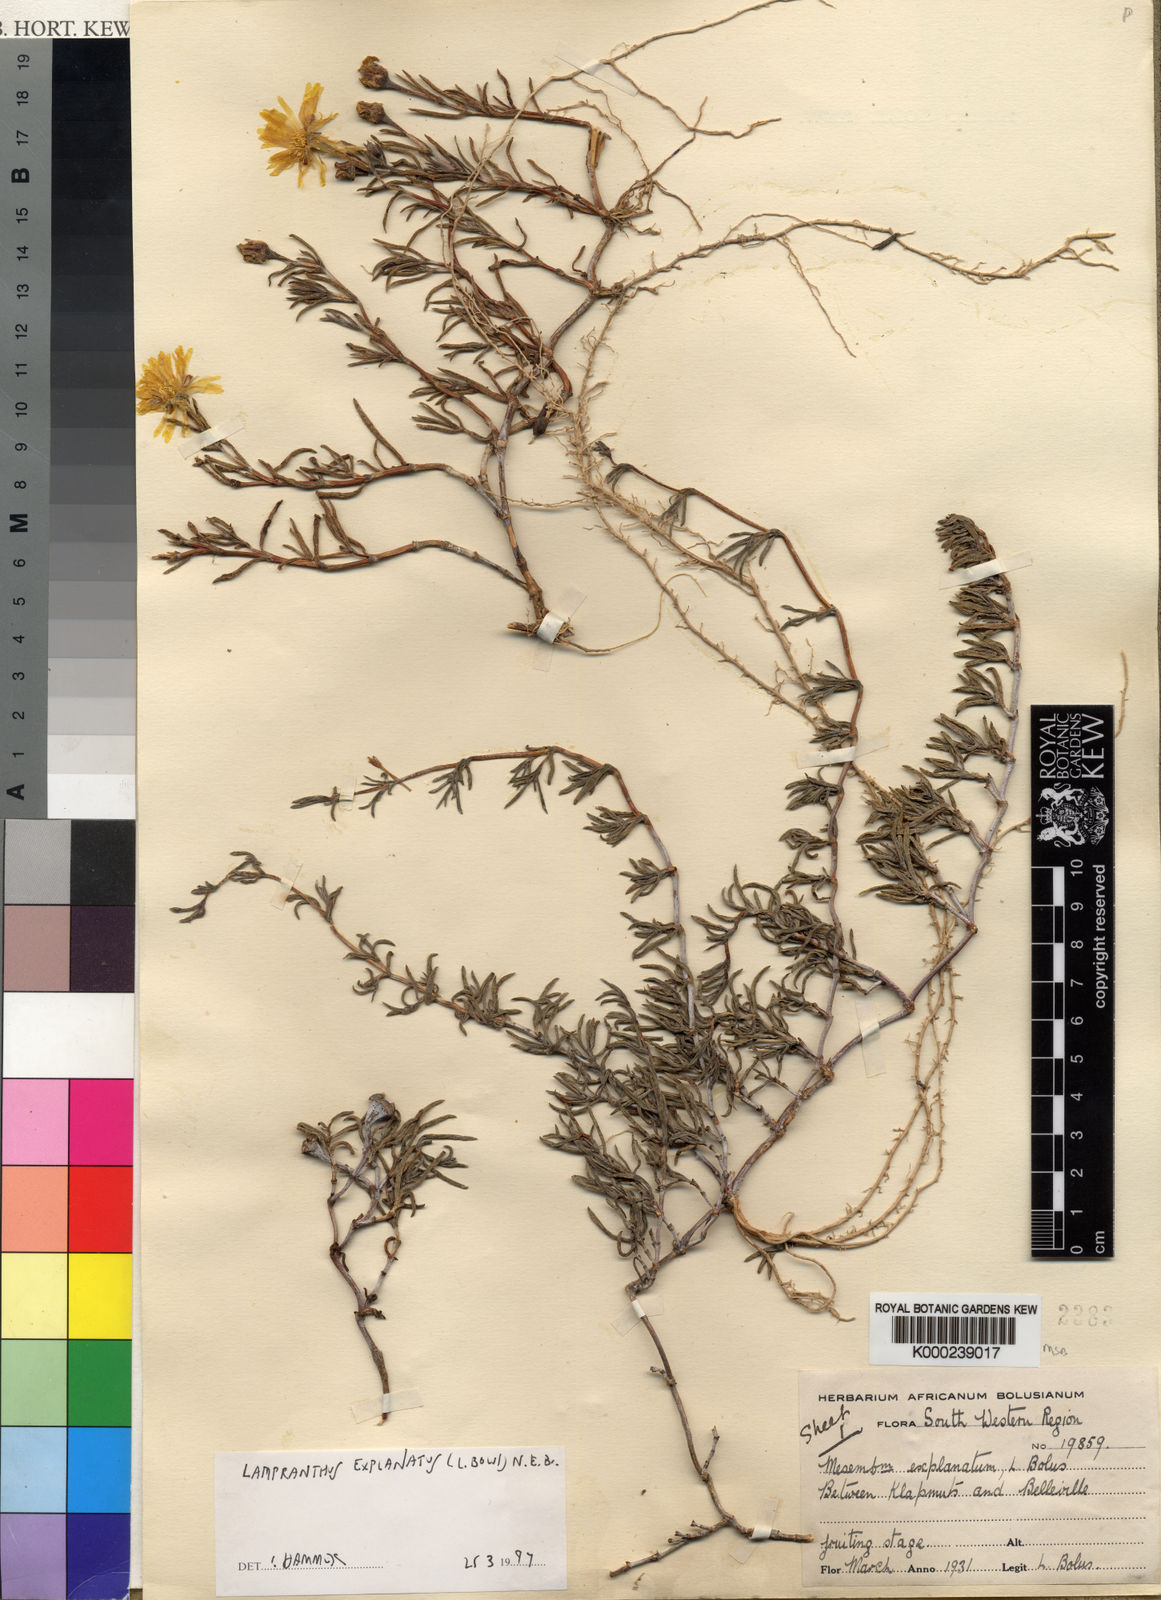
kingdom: Plantae
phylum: Tracheophyta
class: Magnoliopsida
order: Caryophyllales
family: Aizoaceae
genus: Lampranthus
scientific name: Lampranthus explanatus
